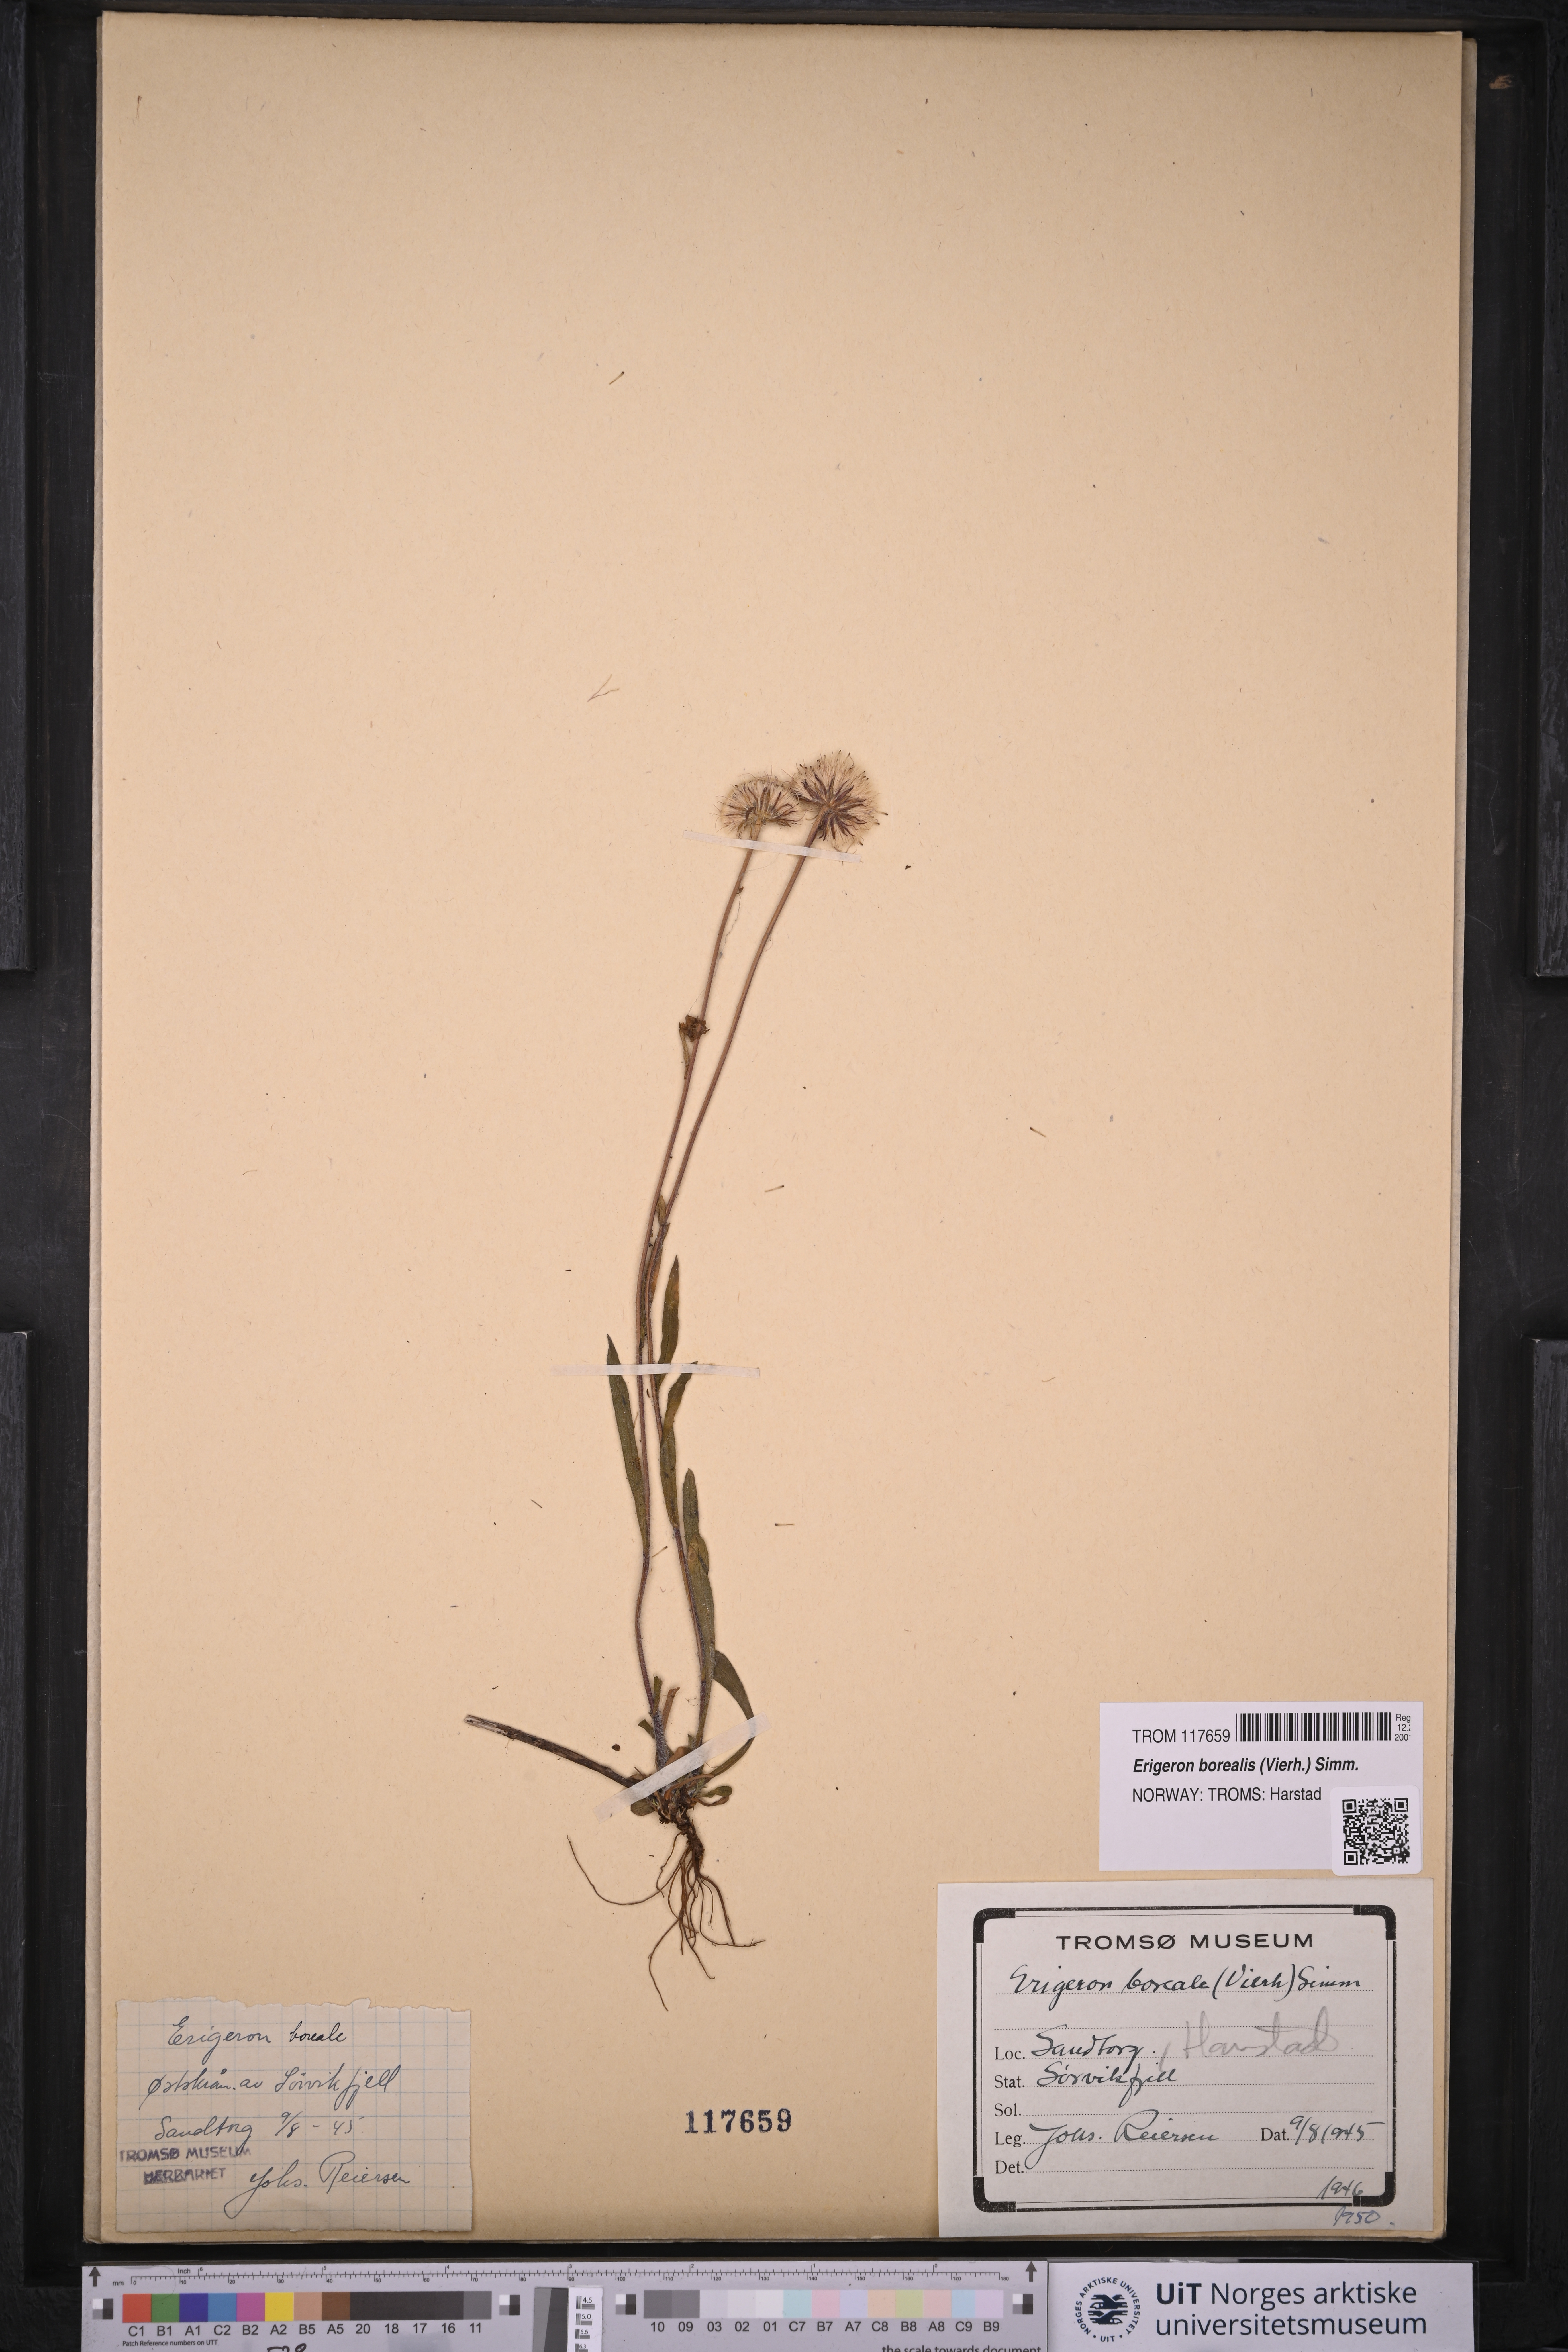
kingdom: Plantae
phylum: Tracheophyta
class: Magnoliopsida
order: Asterales
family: Asteraceae
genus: Erigeron
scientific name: Erigeron borealis
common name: Alpine fleabane
